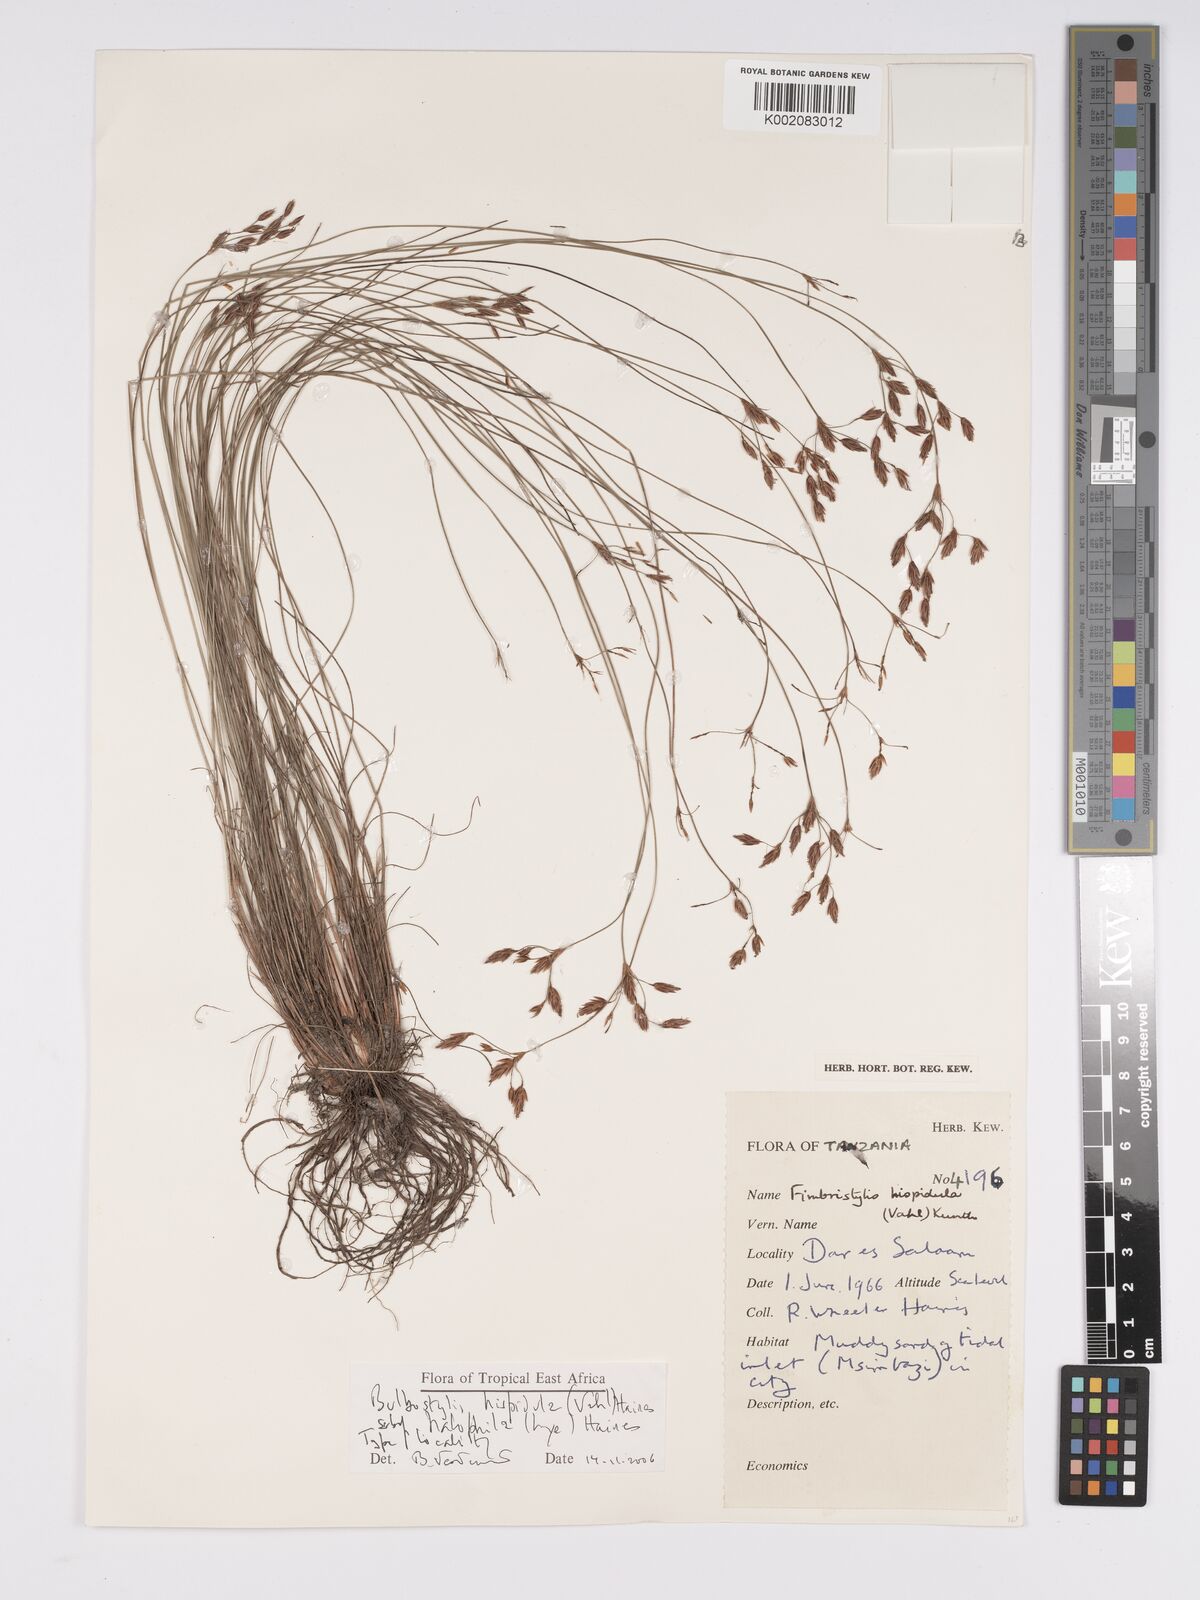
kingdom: Plantae
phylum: Tracheophyta
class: Liliopsida
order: Poales
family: Cyperaceae
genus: Bulbostylis
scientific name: Bulbostylis hispidula
